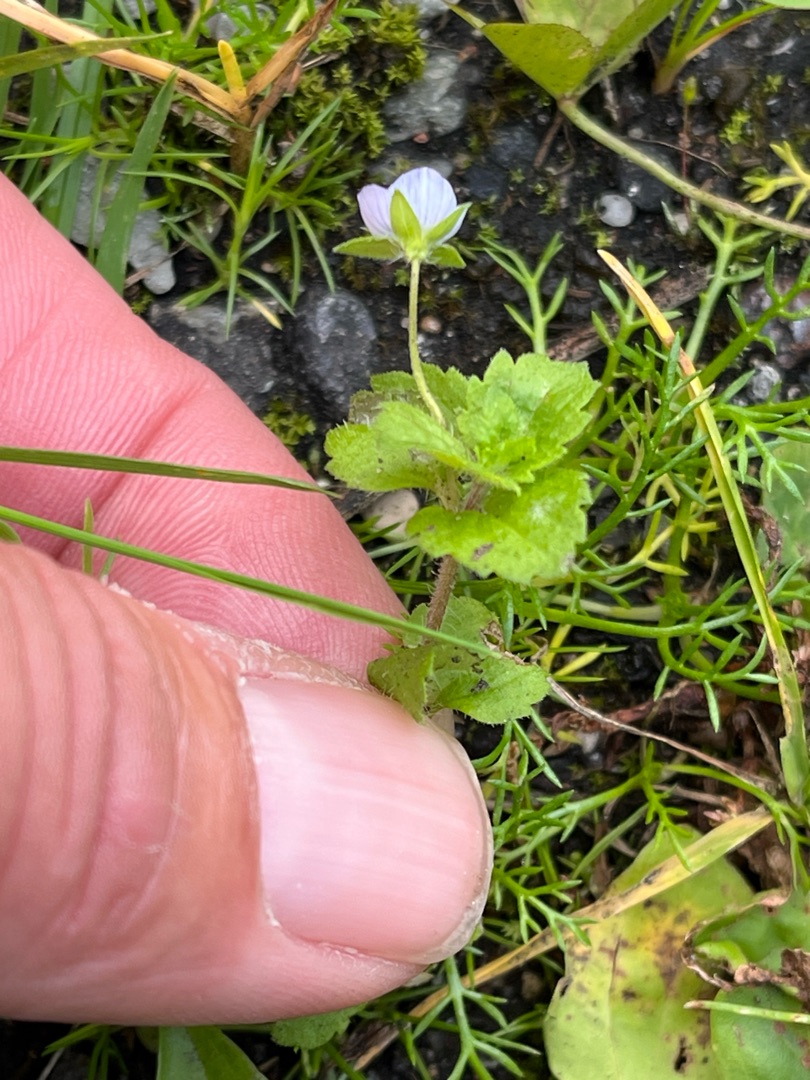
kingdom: Plantae
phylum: Tracheophyta
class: Magnoliopsida
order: Lamiales
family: Plantaginaceae
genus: Veronica
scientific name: Veronica persica
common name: Storkronet ærenpris
